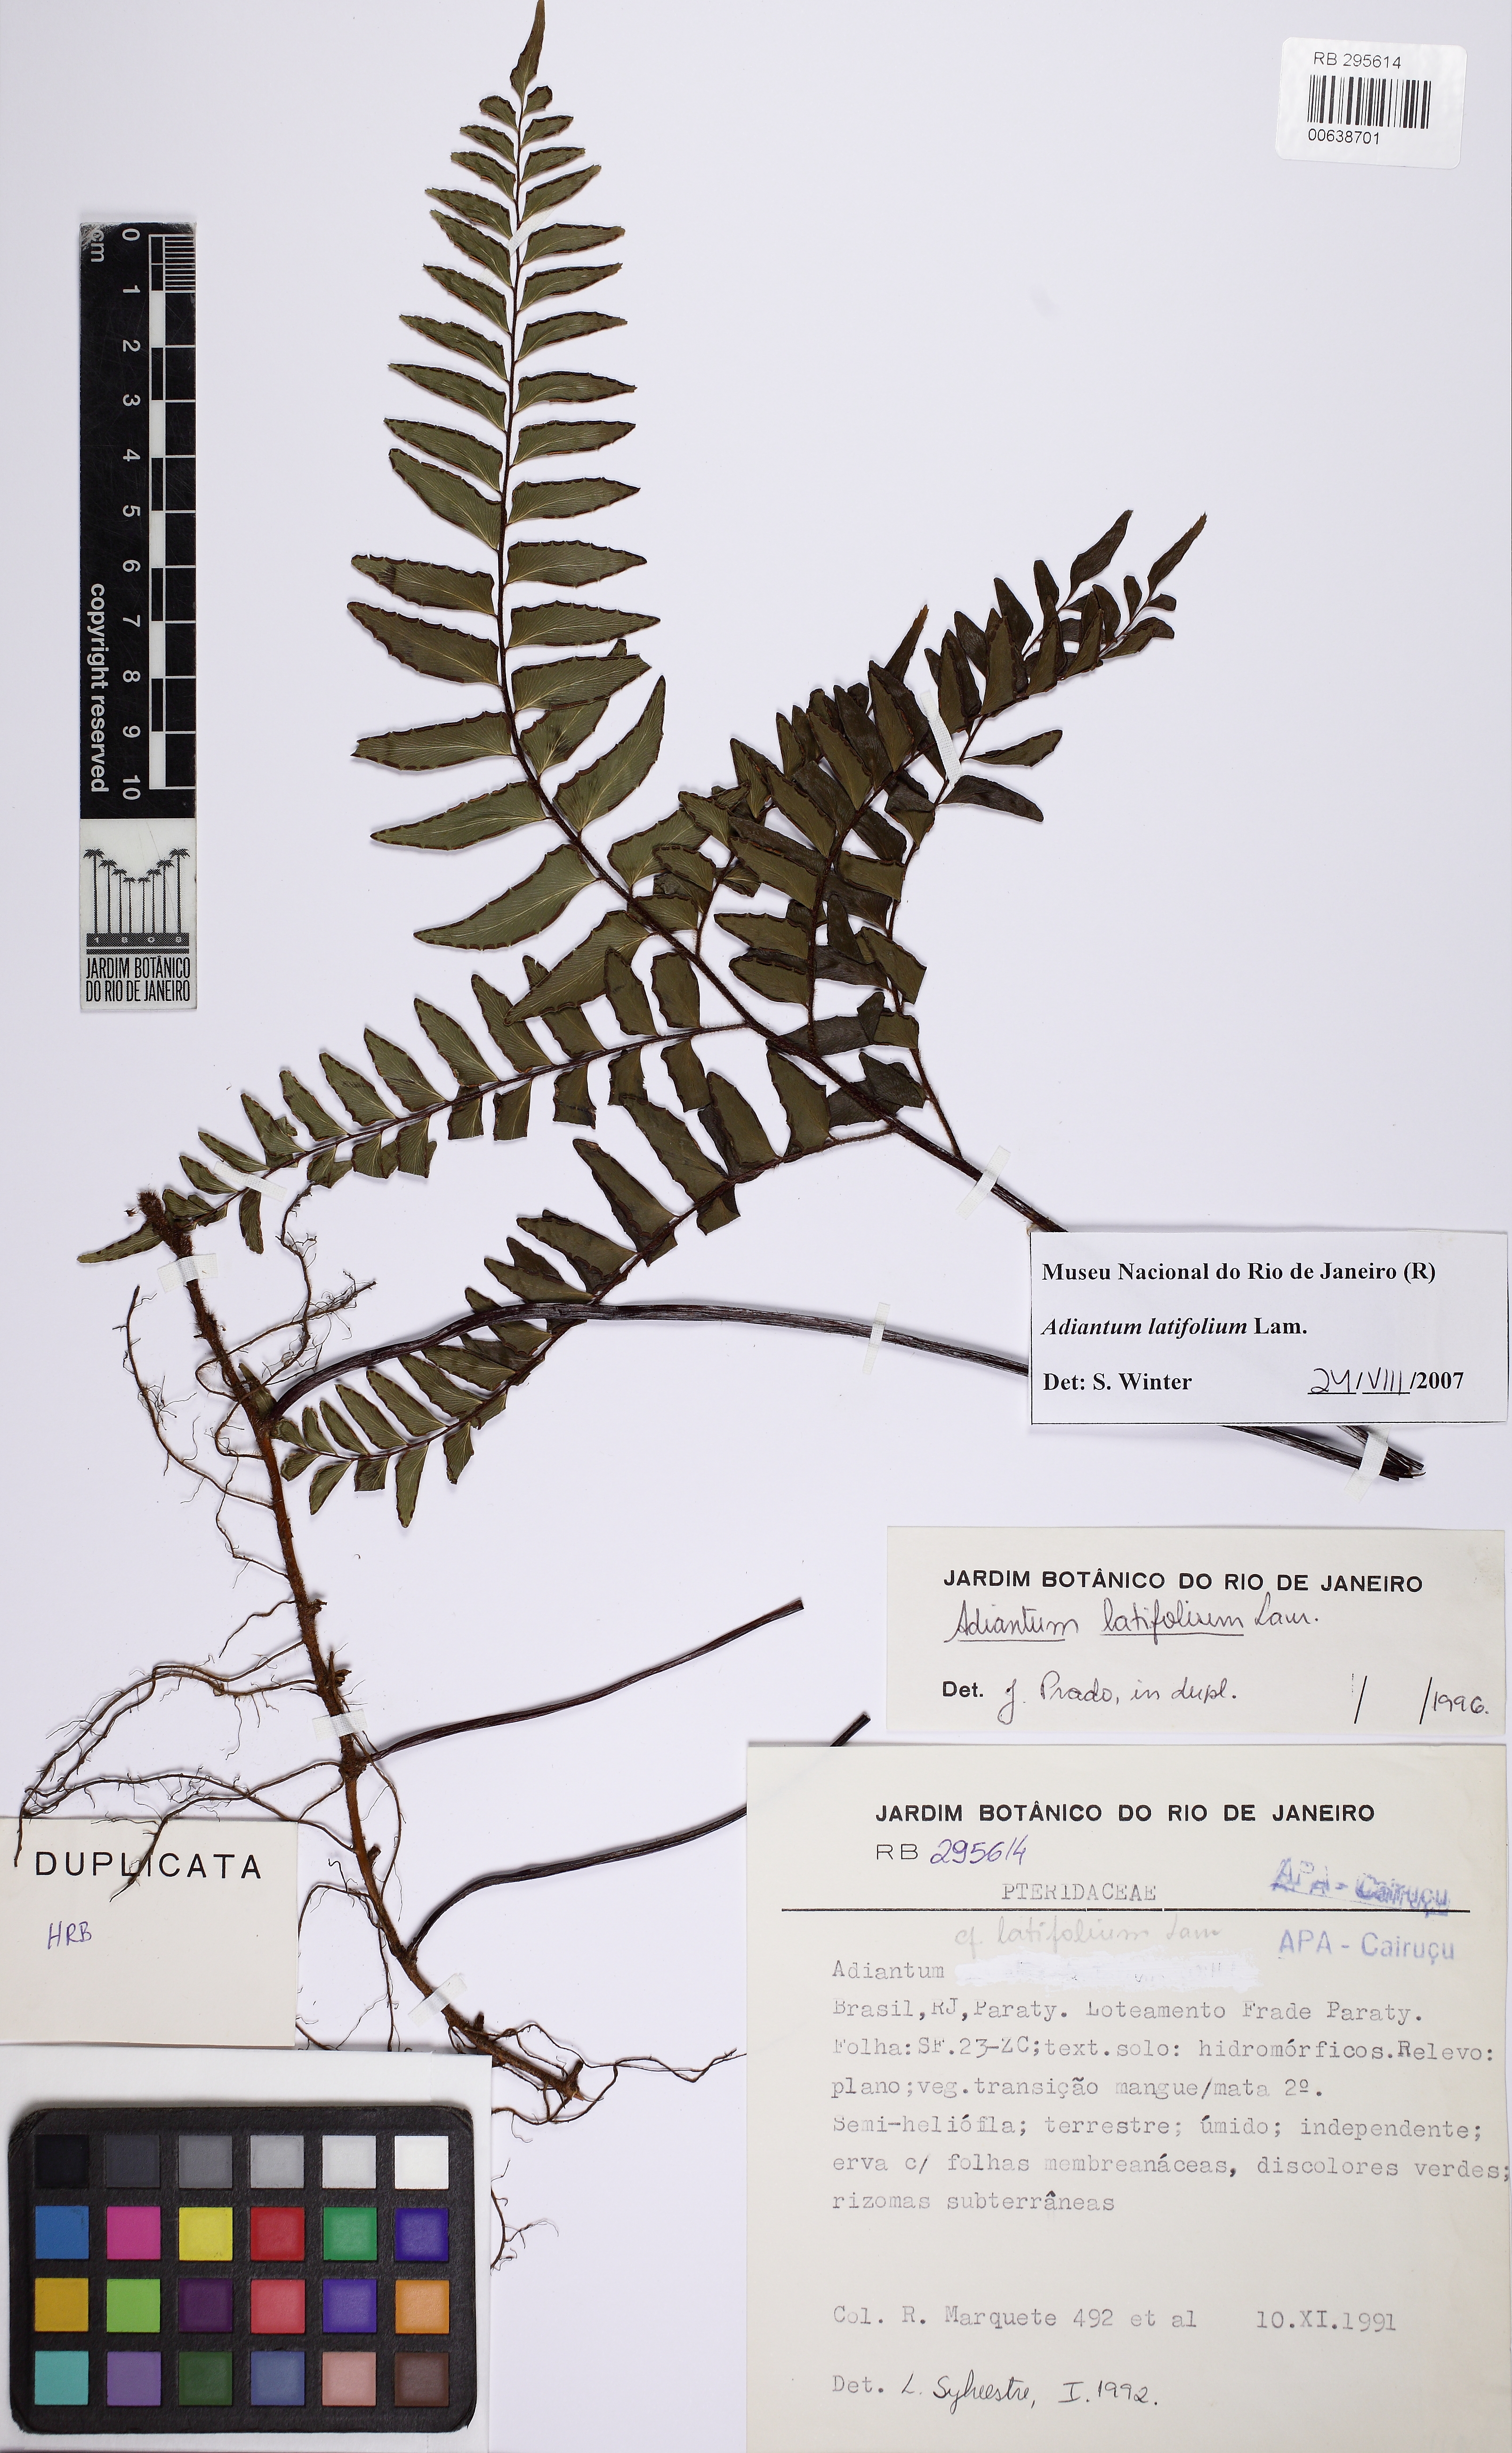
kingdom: Plantae
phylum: Tracheophyta
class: Polypodiopsida
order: Polypodiales
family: Pteridaceae
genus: Adiantum
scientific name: Adiantum latifolium
